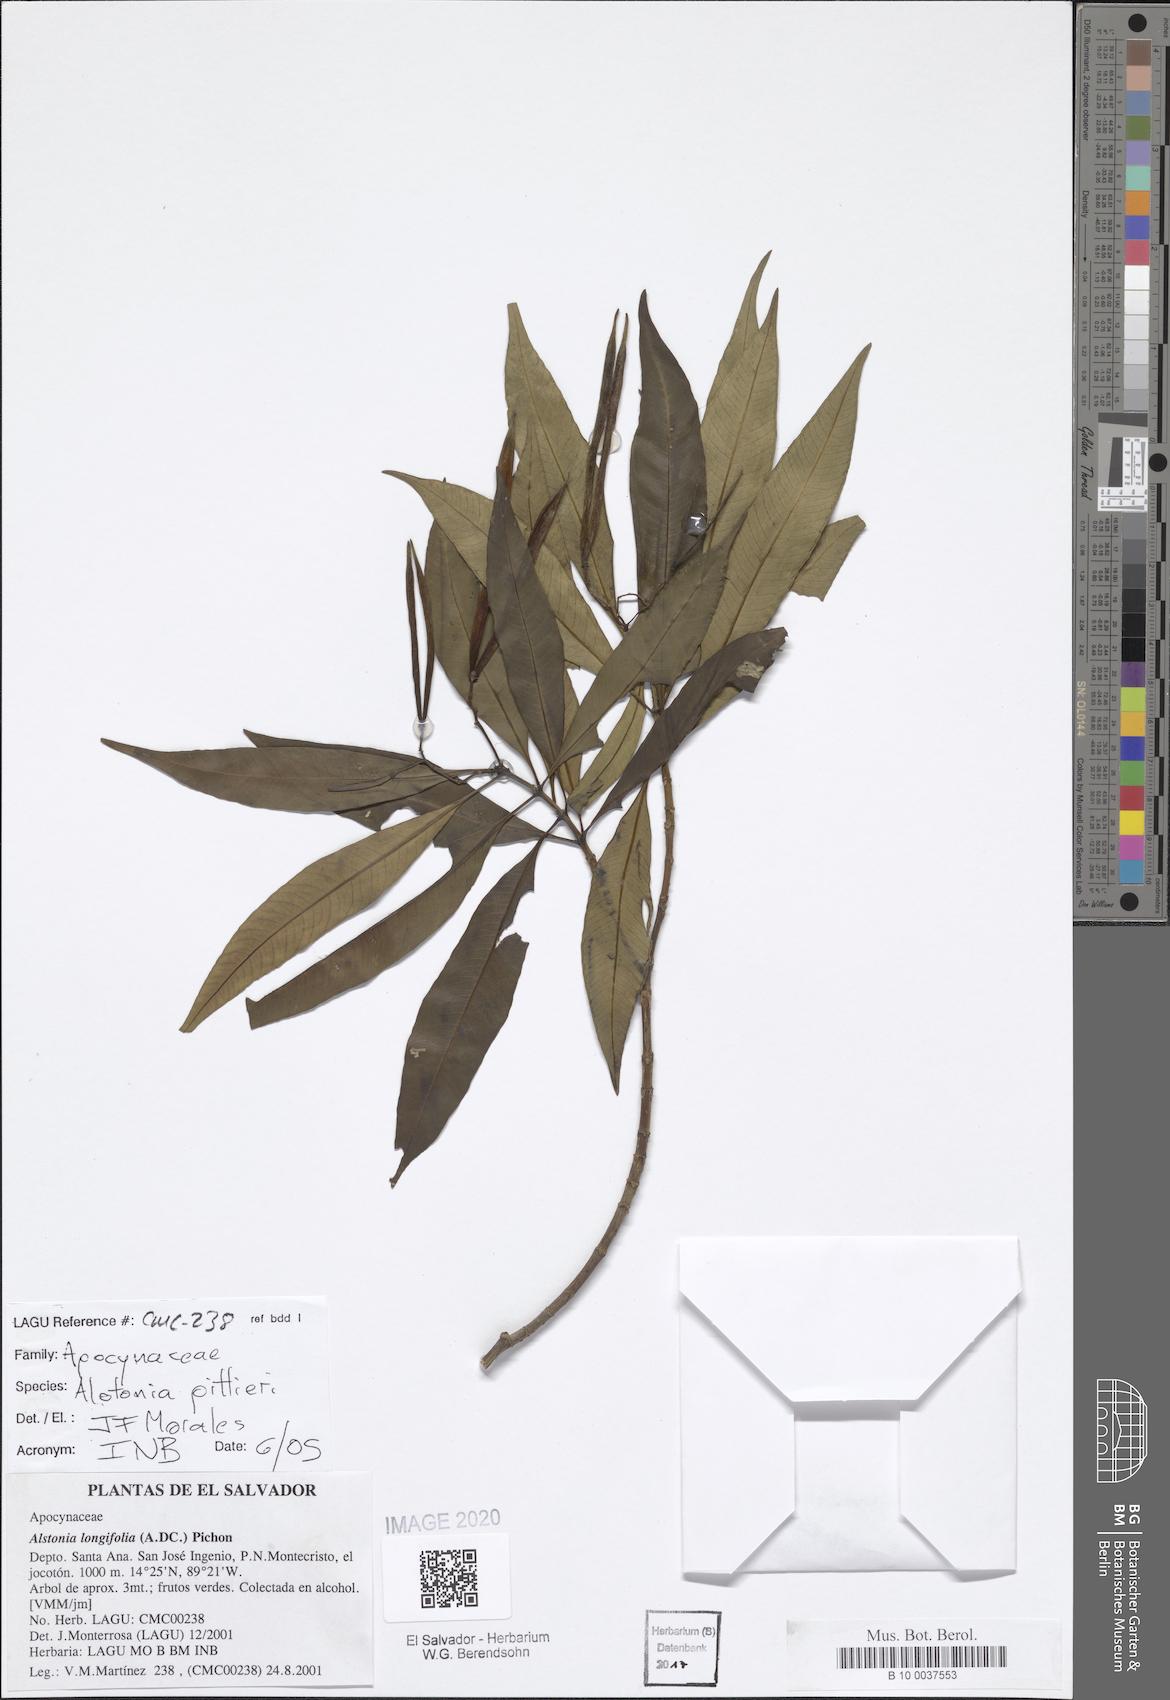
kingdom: Plantae
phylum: Tracheophyta
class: Magnoliopsida
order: Gentianales
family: Apocynaceae
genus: Tonduzia
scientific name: Tonduzia longifolia
